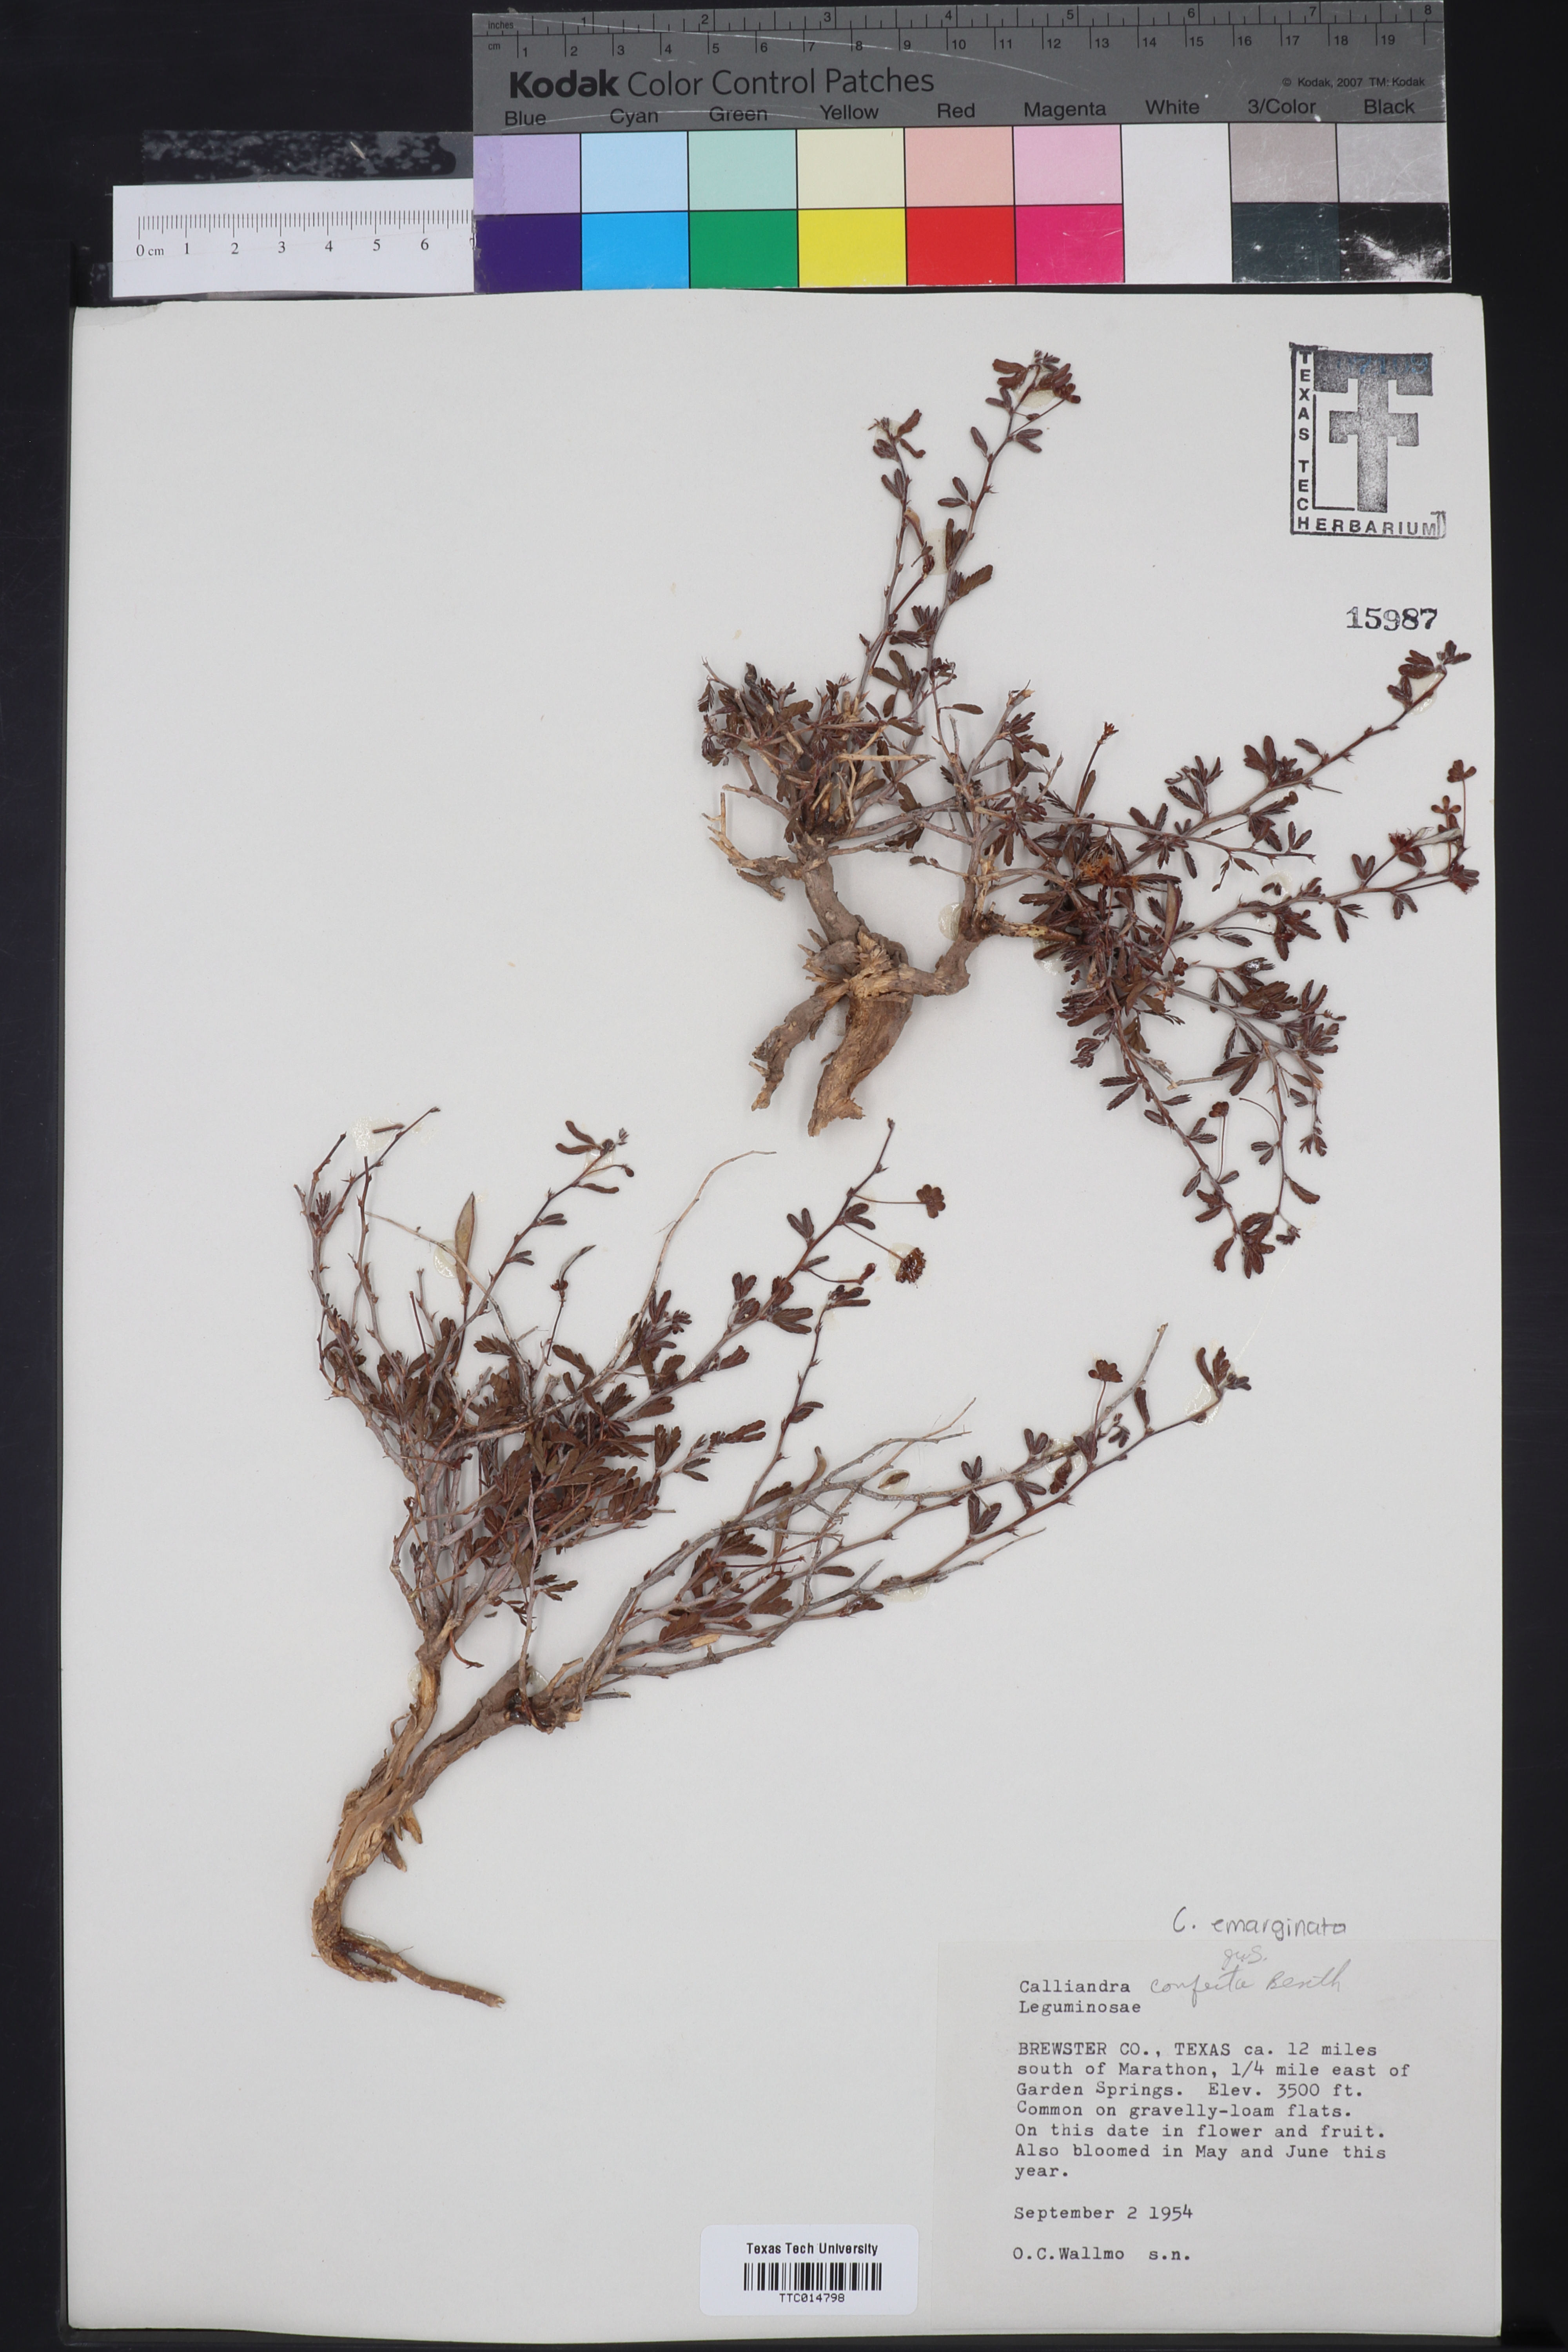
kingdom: Plantae
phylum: Tracheophyta
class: Magnoliopsida
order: Fabales
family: Fabaceae
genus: Calliandra
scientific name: Calliandra conferta
